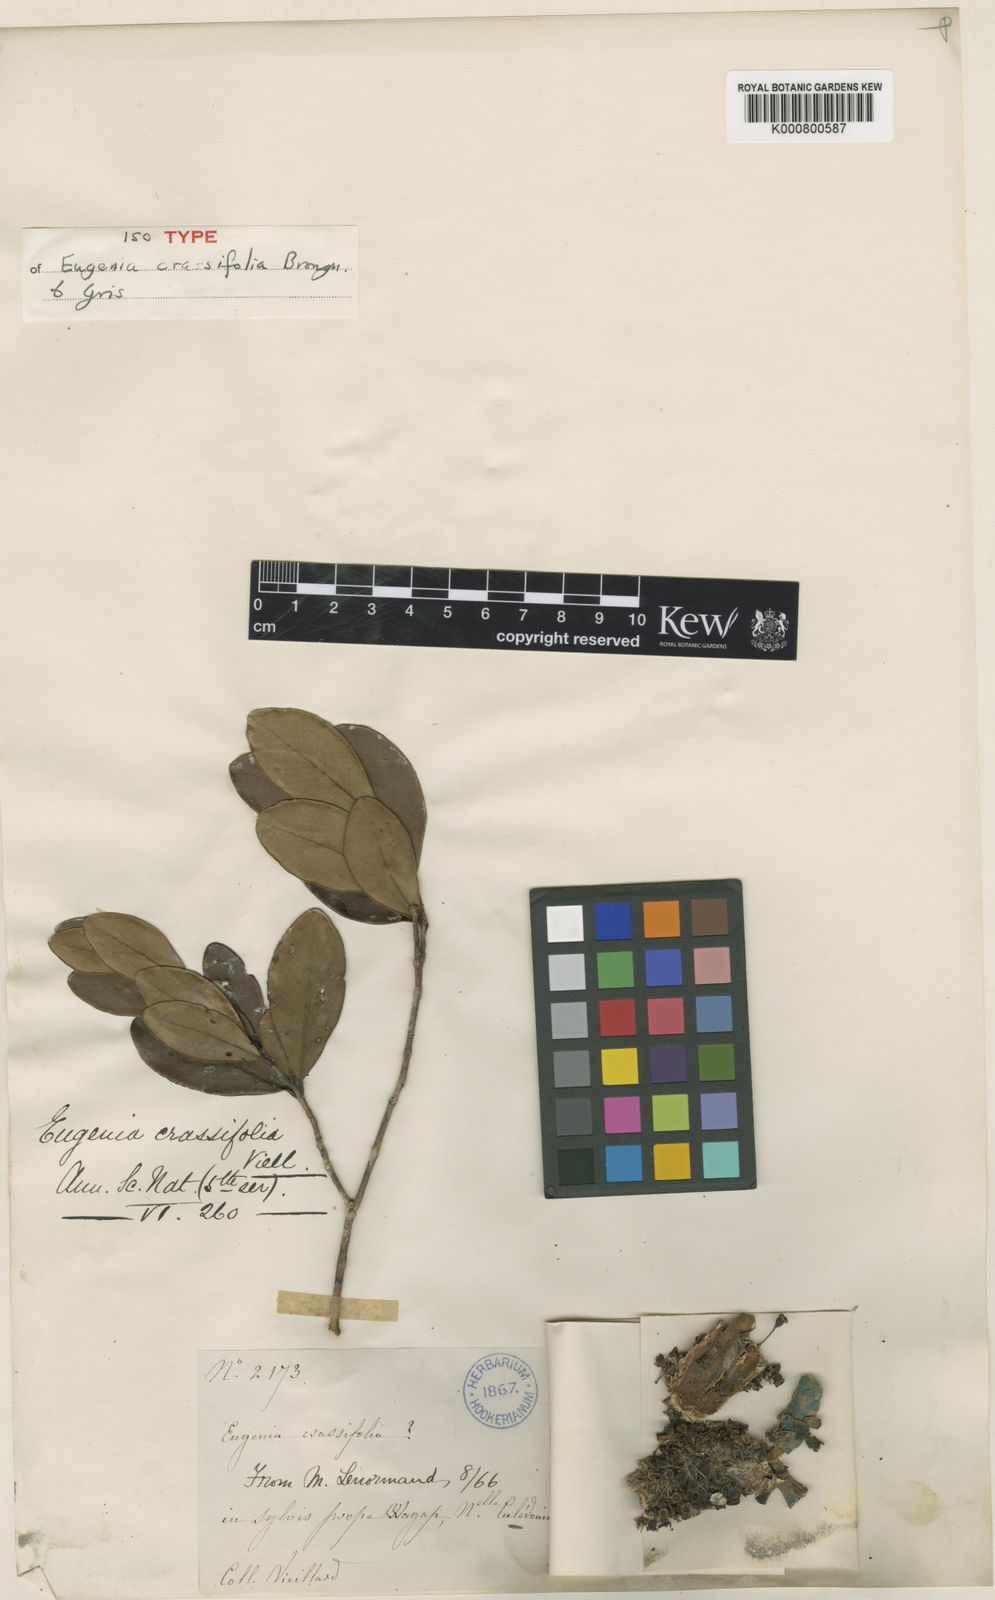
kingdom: Plantae
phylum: Tracheophyta
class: Magnoliopsida
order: Myrtales
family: Myrtaceae
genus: Syzygium
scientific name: Syzygium
